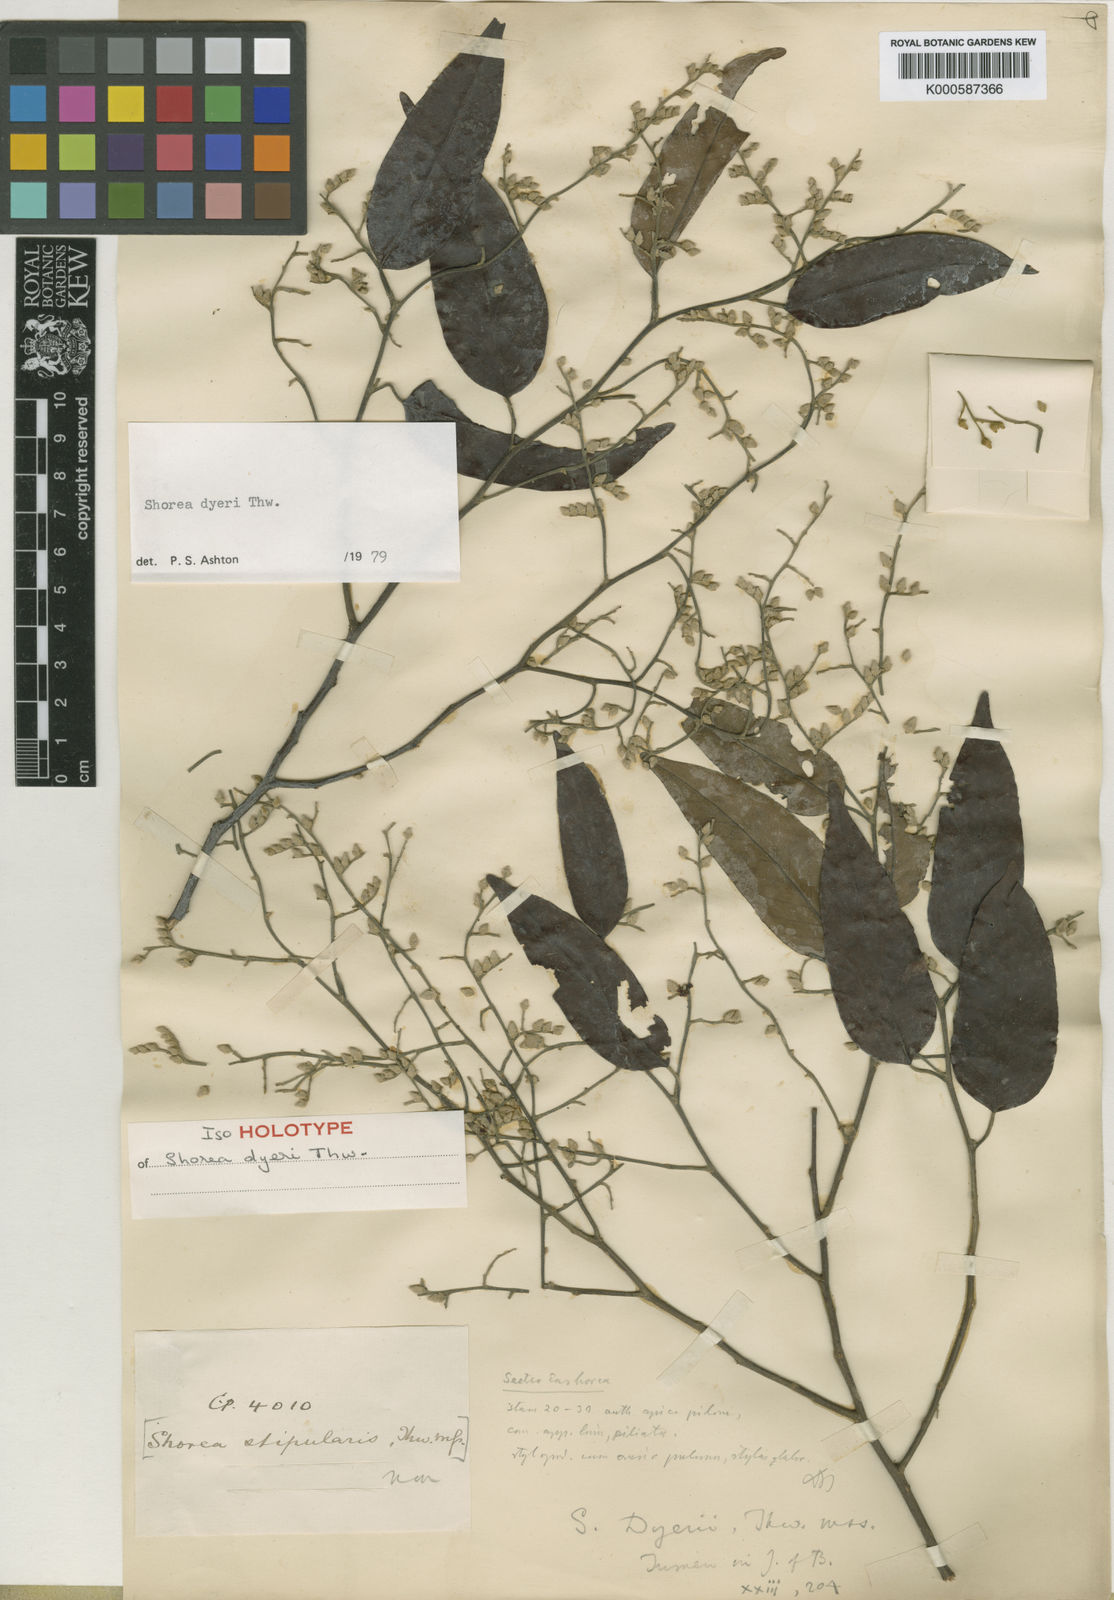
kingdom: Plantae
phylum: Tracheophyta
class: Magnoliopsida
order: Malvales
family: Dipterocarpaceae
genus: Shorea
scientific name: Shorea dyeri
